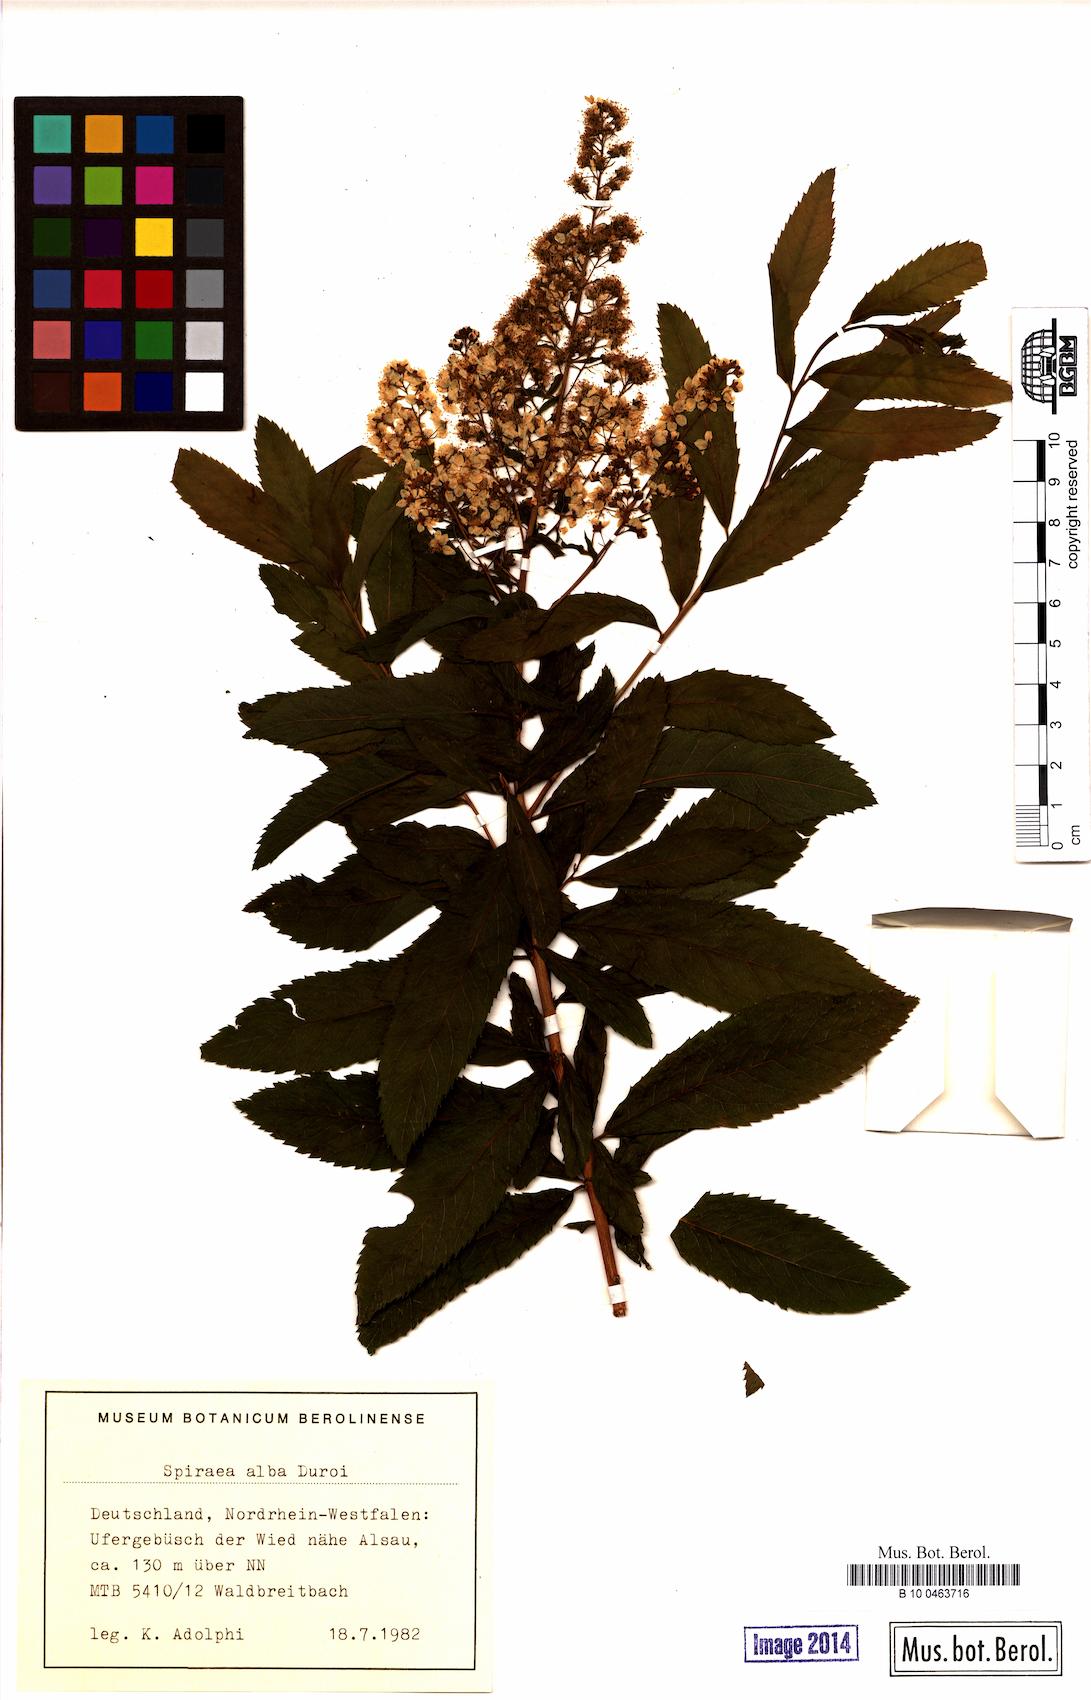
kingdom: Plantae
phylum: Tracheophyta
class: Magnoliopsida
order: Rosales
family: Rosaceae
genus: Spiraea
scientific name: Spiraea alba
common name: Pale bridewort
